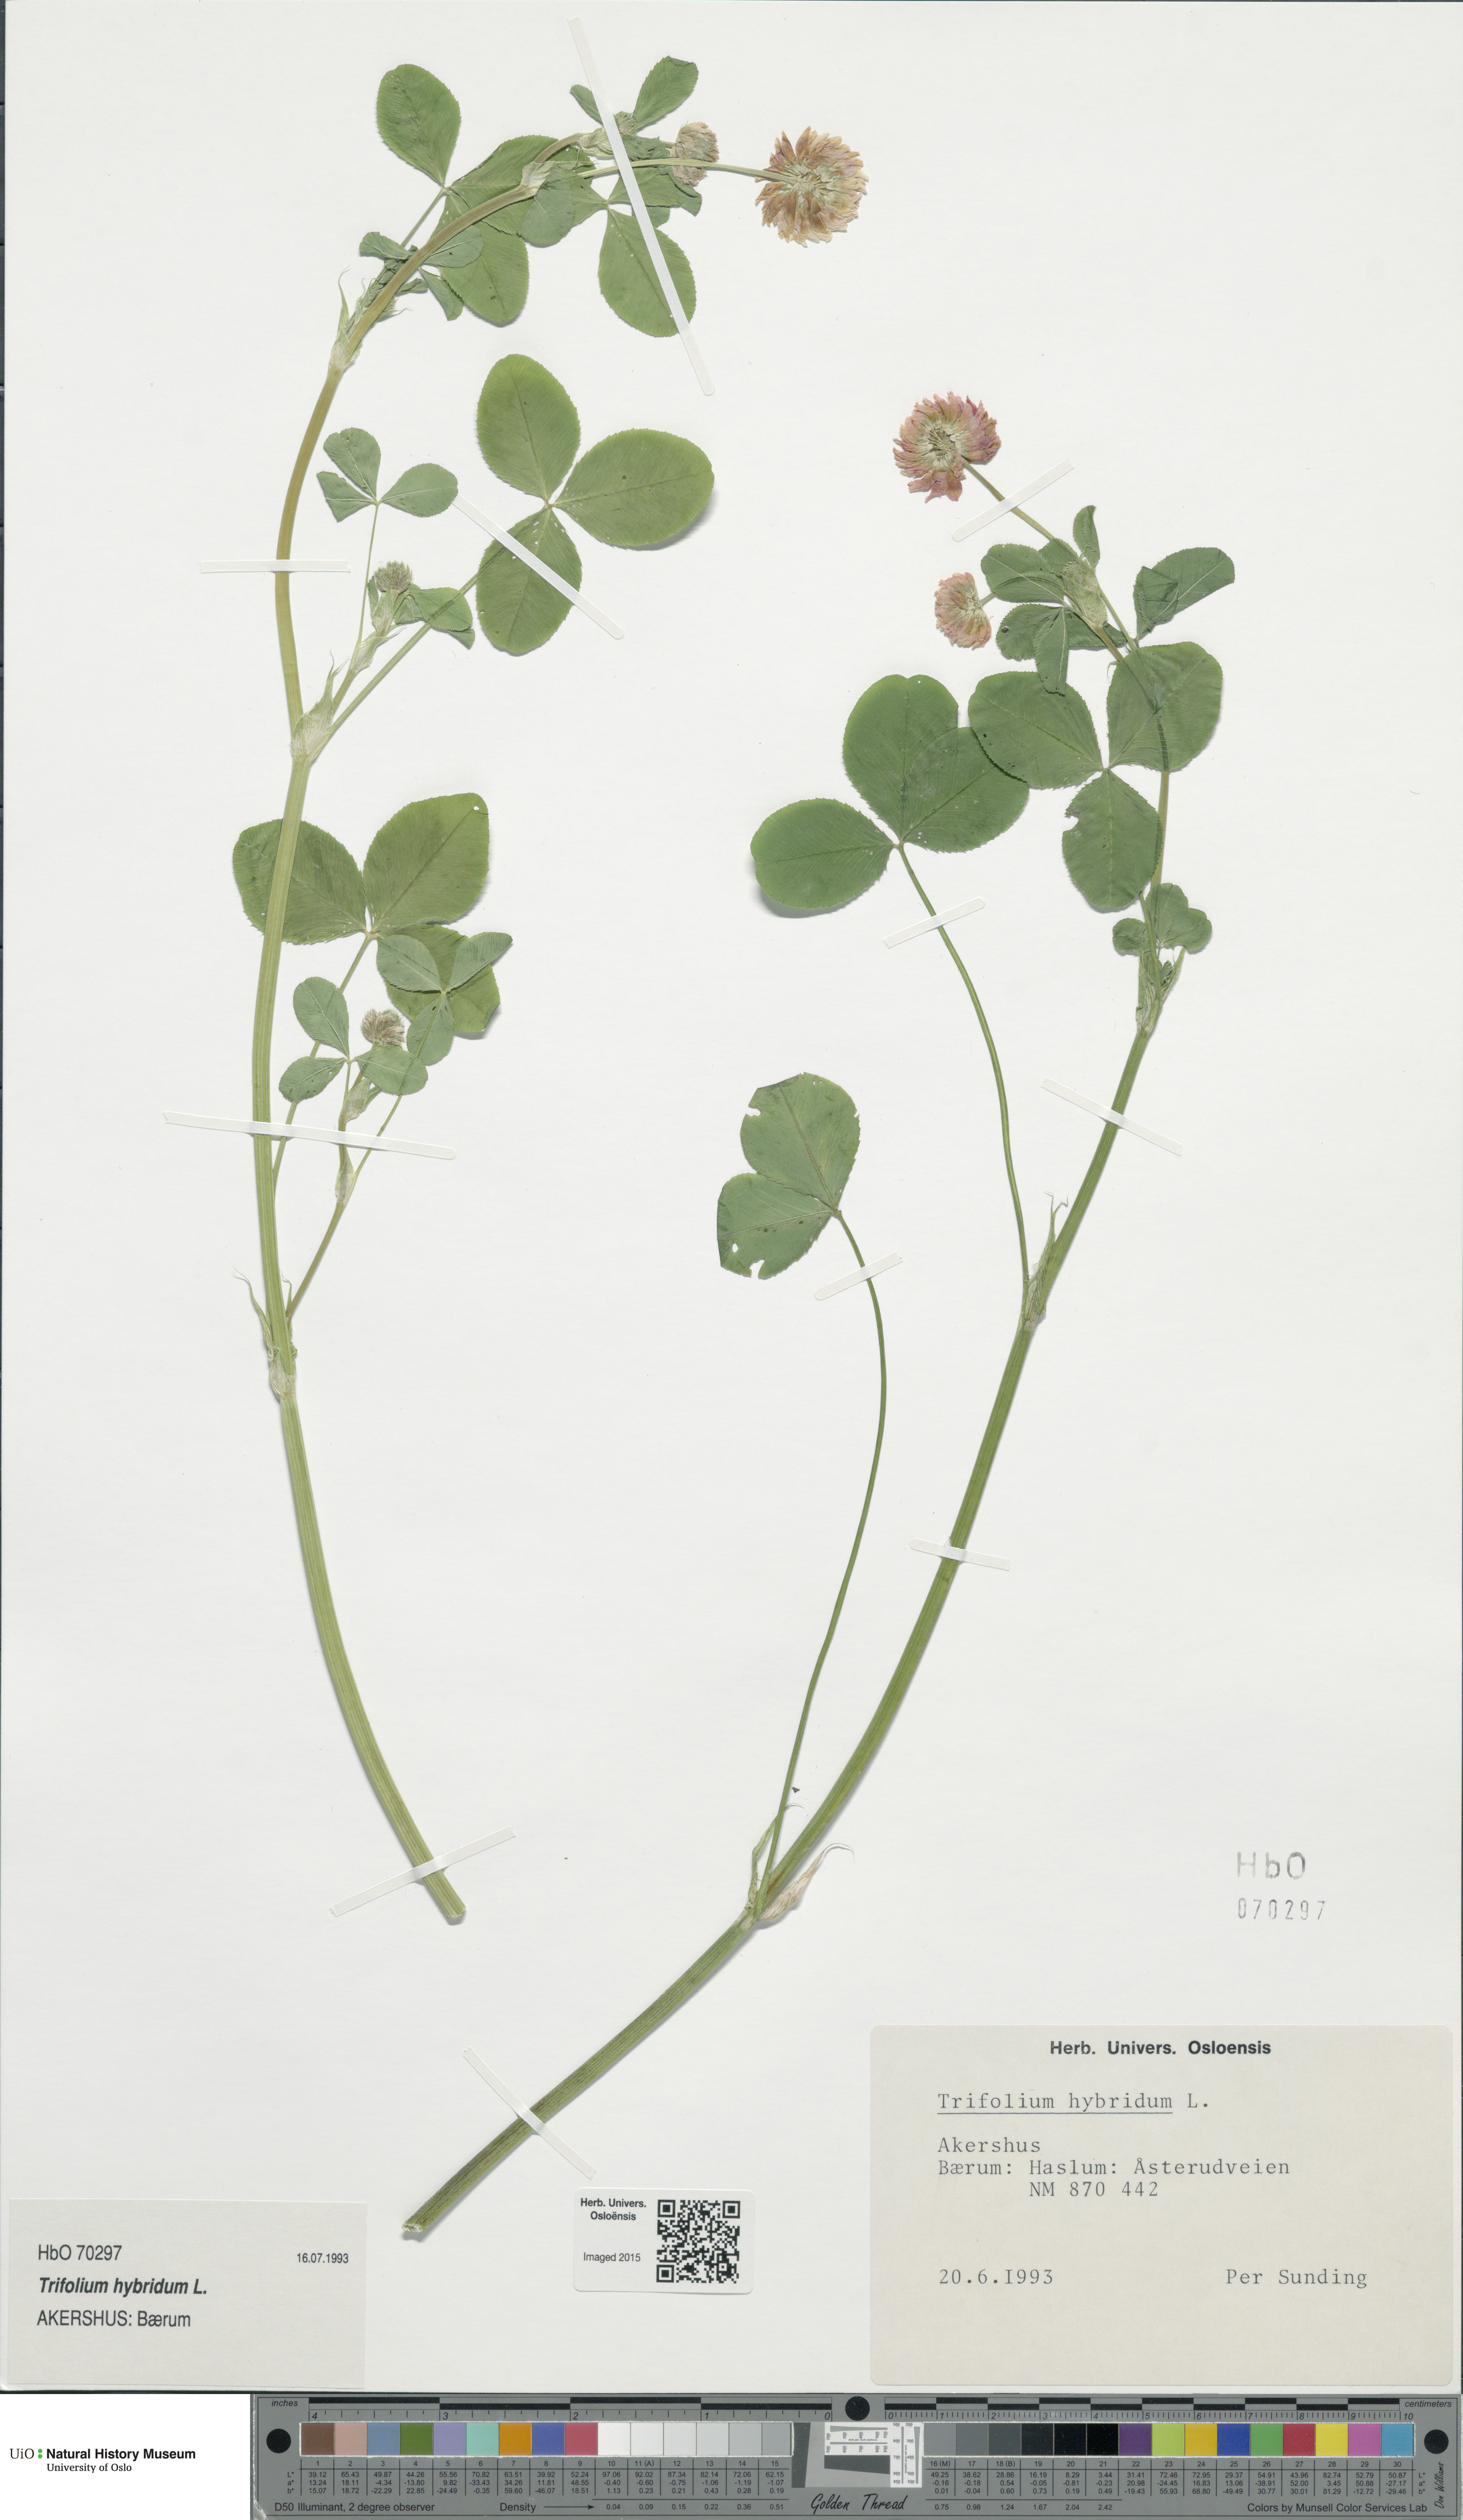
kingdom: Plantae
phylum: Tracheophyta
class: Magnoliopsida
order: Fabales
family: Fabaceae
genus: Trifolium
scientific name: Trifolium hybridum
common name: Alsike clover
